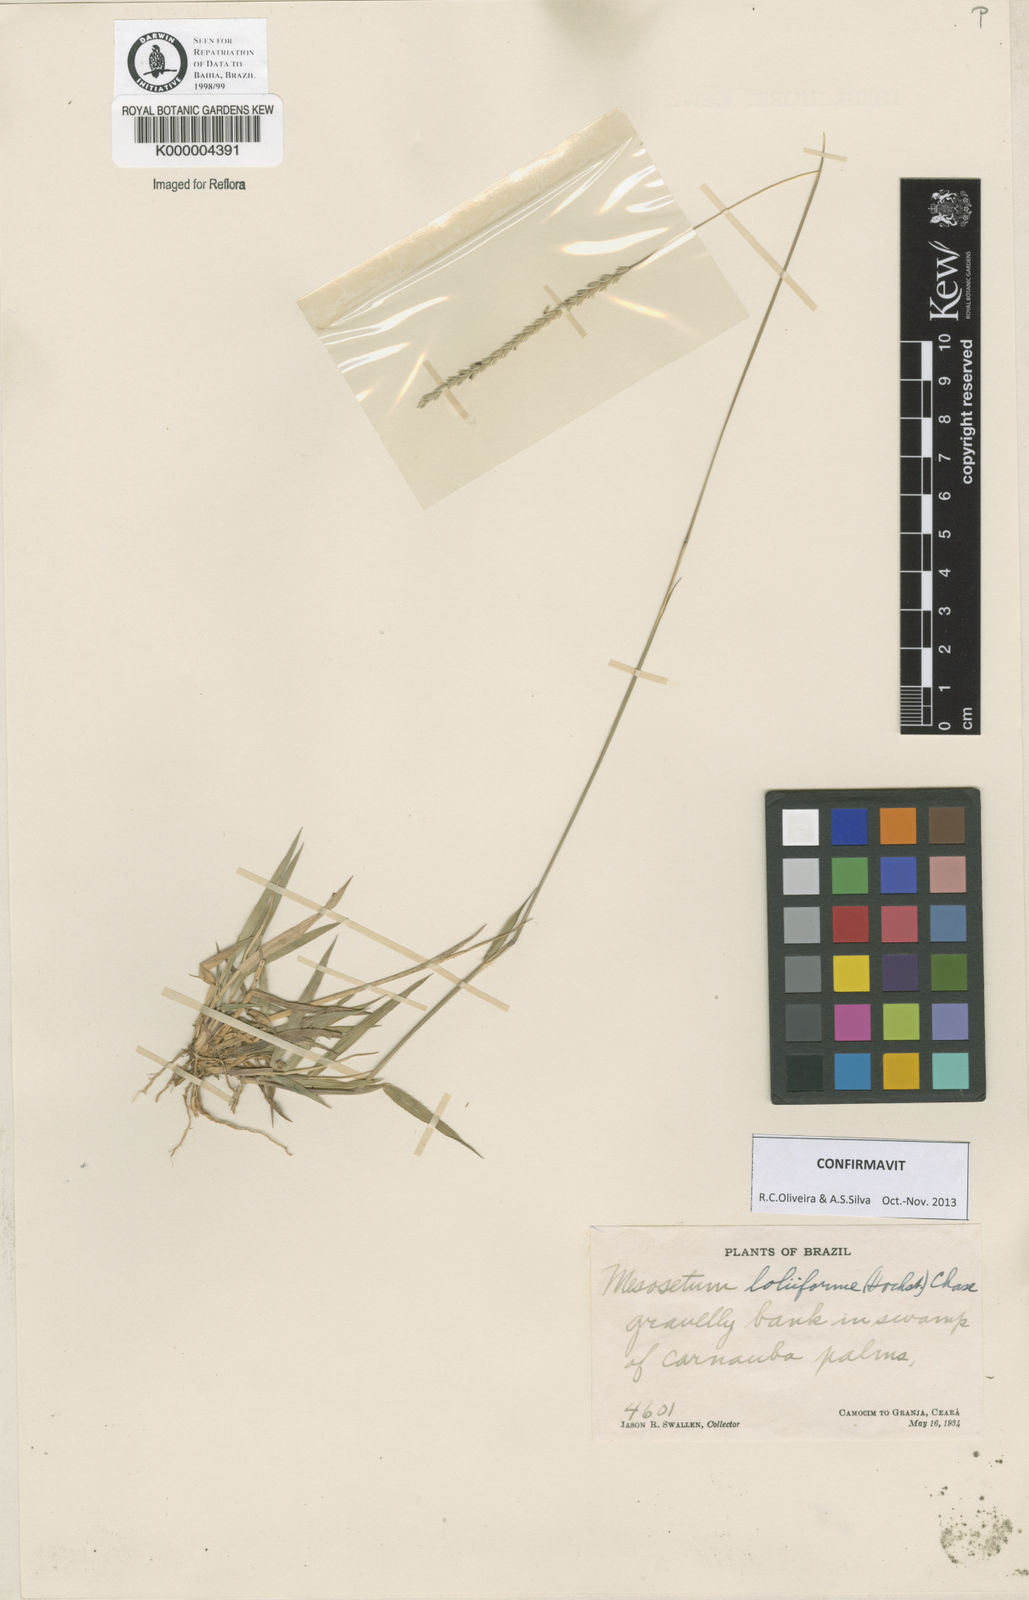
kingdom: Plantae
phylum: Tracheophyta
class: Liliopsida
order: Poales
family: Poaceae
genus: Mesosetum
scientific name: Mesosetum
